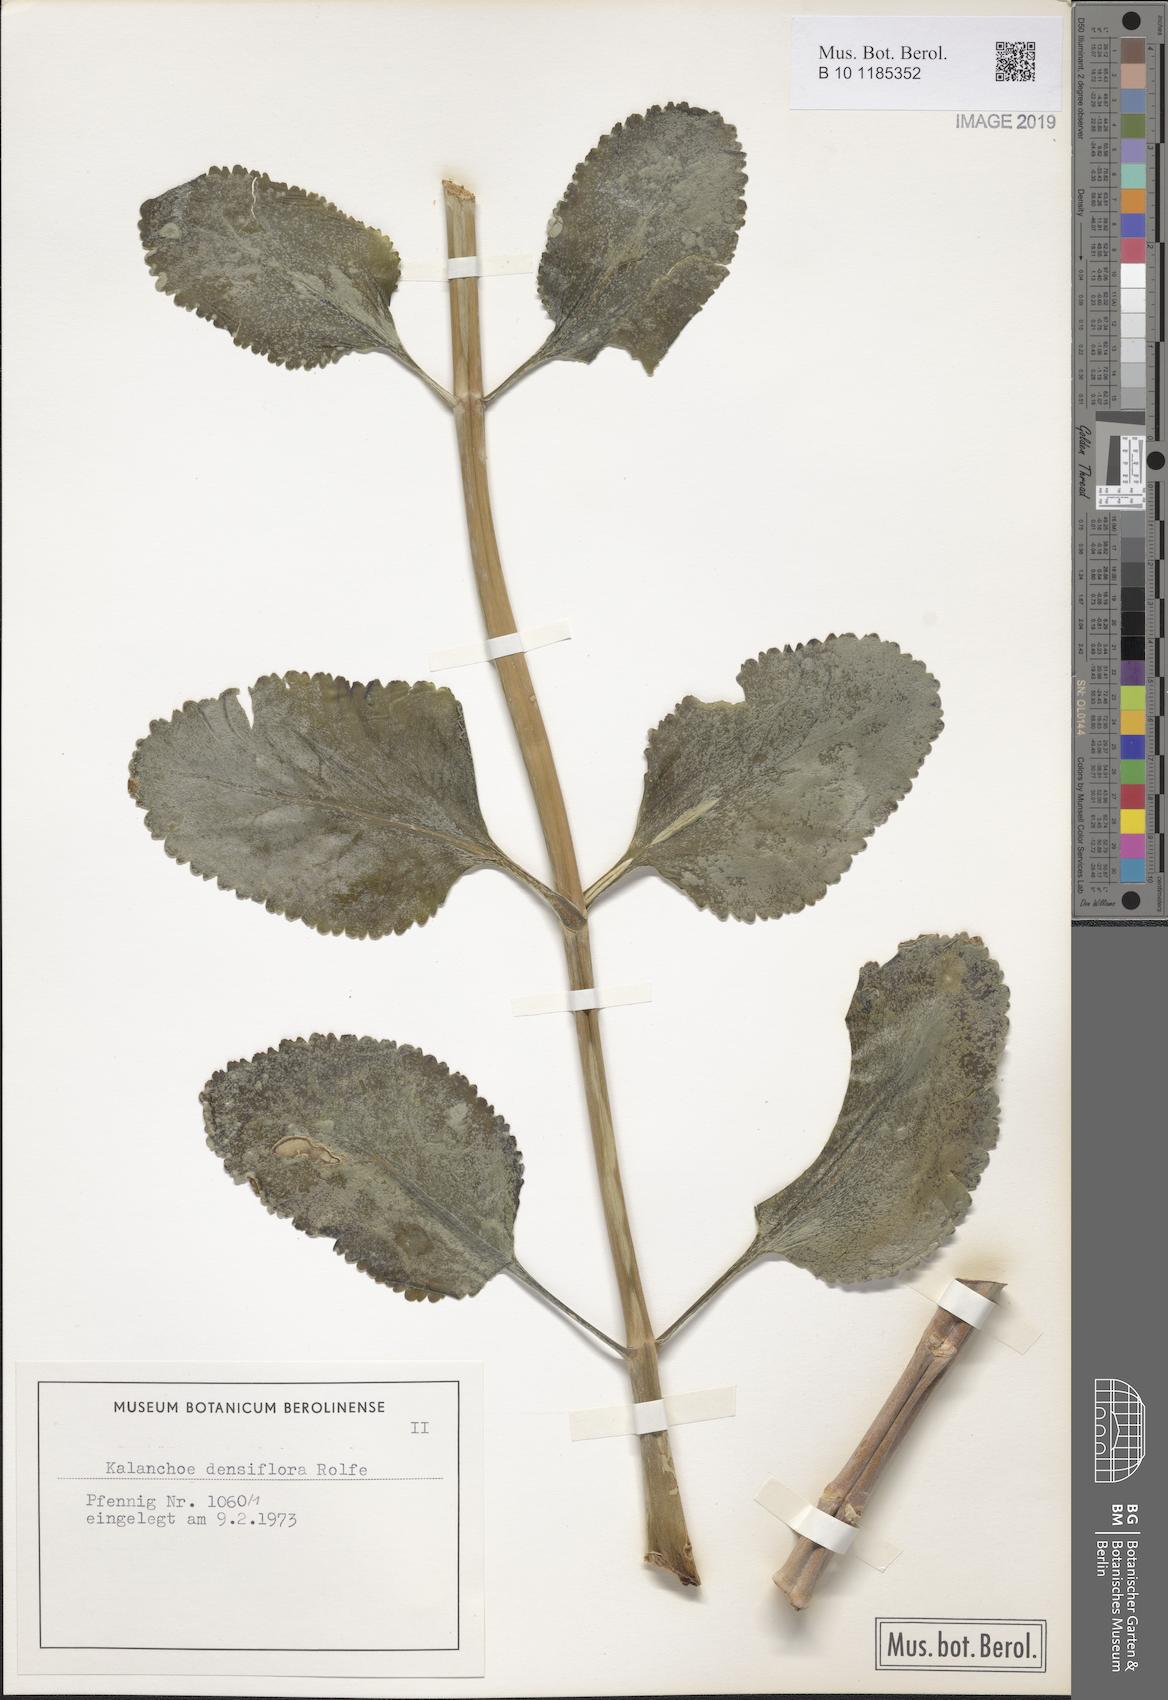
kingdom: Plantae
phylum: Tracheophyta
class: Magnoliopsida
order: Saxifragales
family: Crassulaceae
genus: Kalanchoe
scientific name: Kalanchoe densiflora
